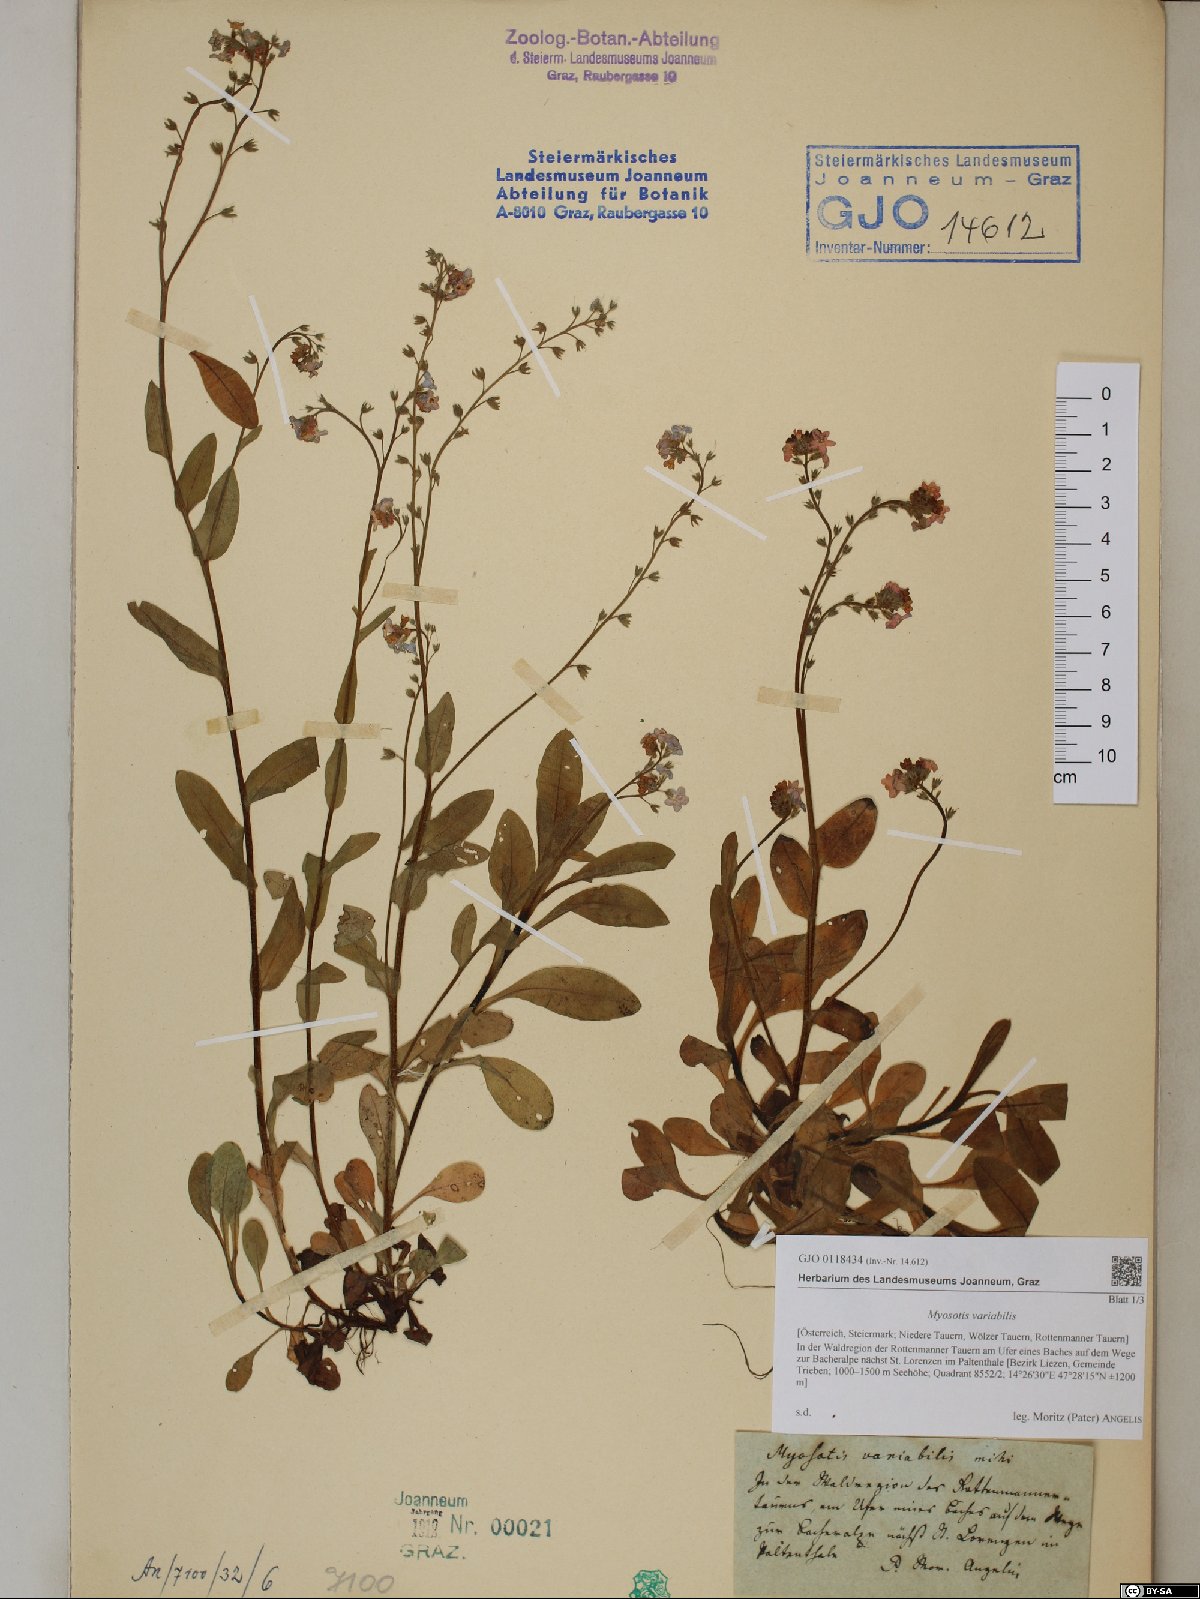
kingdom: Plantae
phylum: Tracheophyta
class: Magnoliopsida
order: Boraginales
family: Boraginaceae
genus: Myosotis
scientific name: Myosotis decumbens
